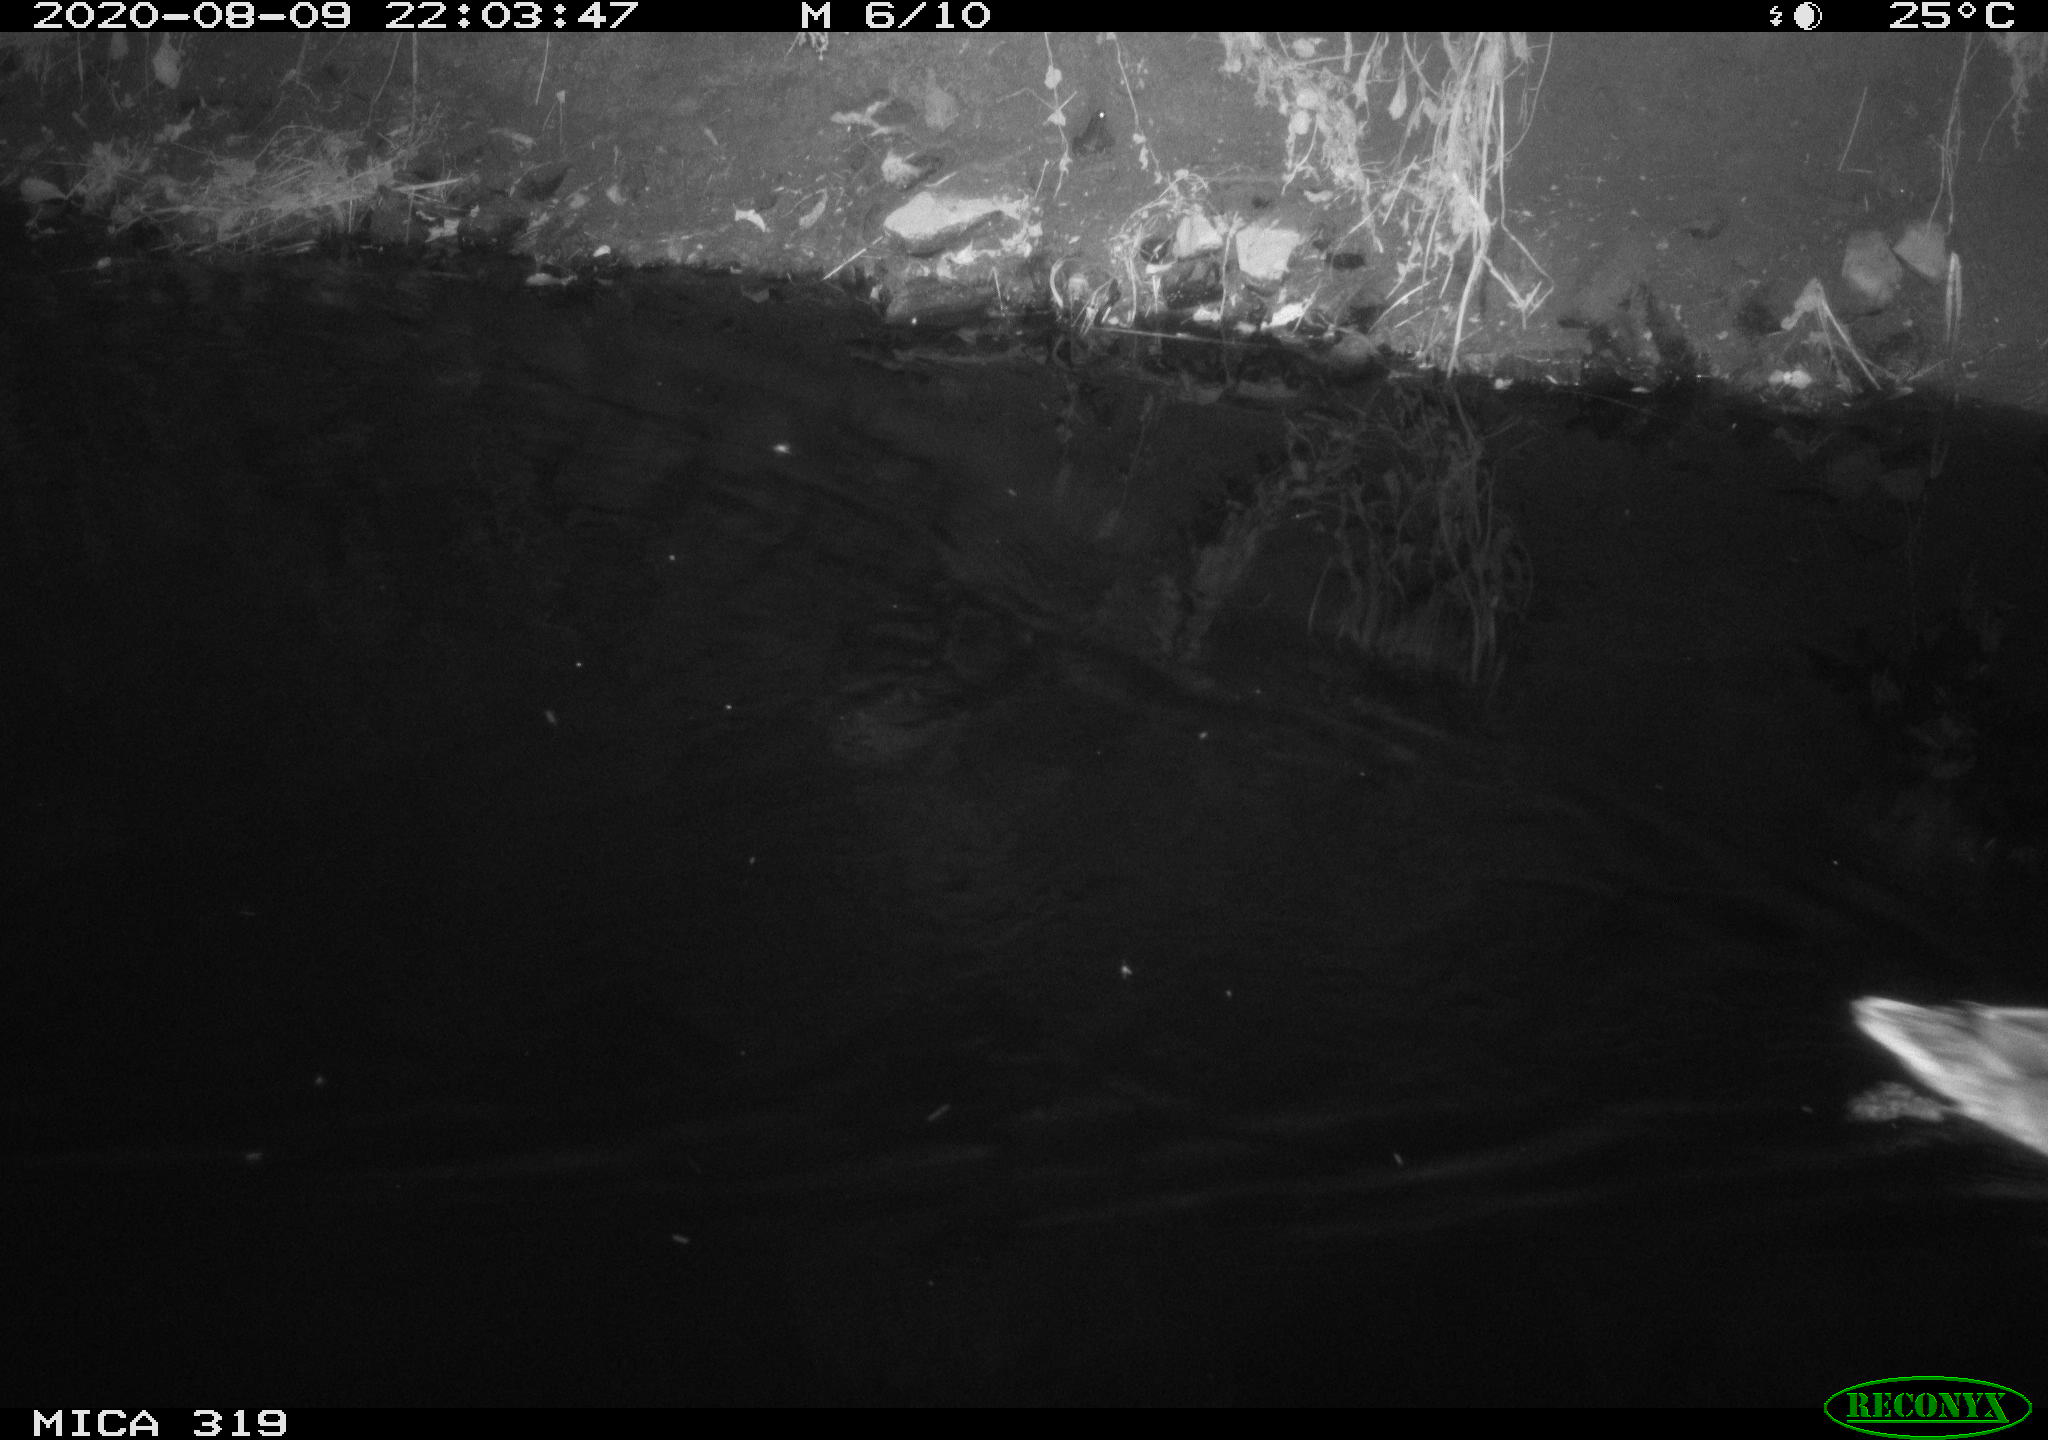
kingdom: Animalia
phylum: Chordata
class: Aves
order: Anseriformes
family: Anatidae
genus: Anas
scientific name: Anas platyrhynchos
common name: Mallard
